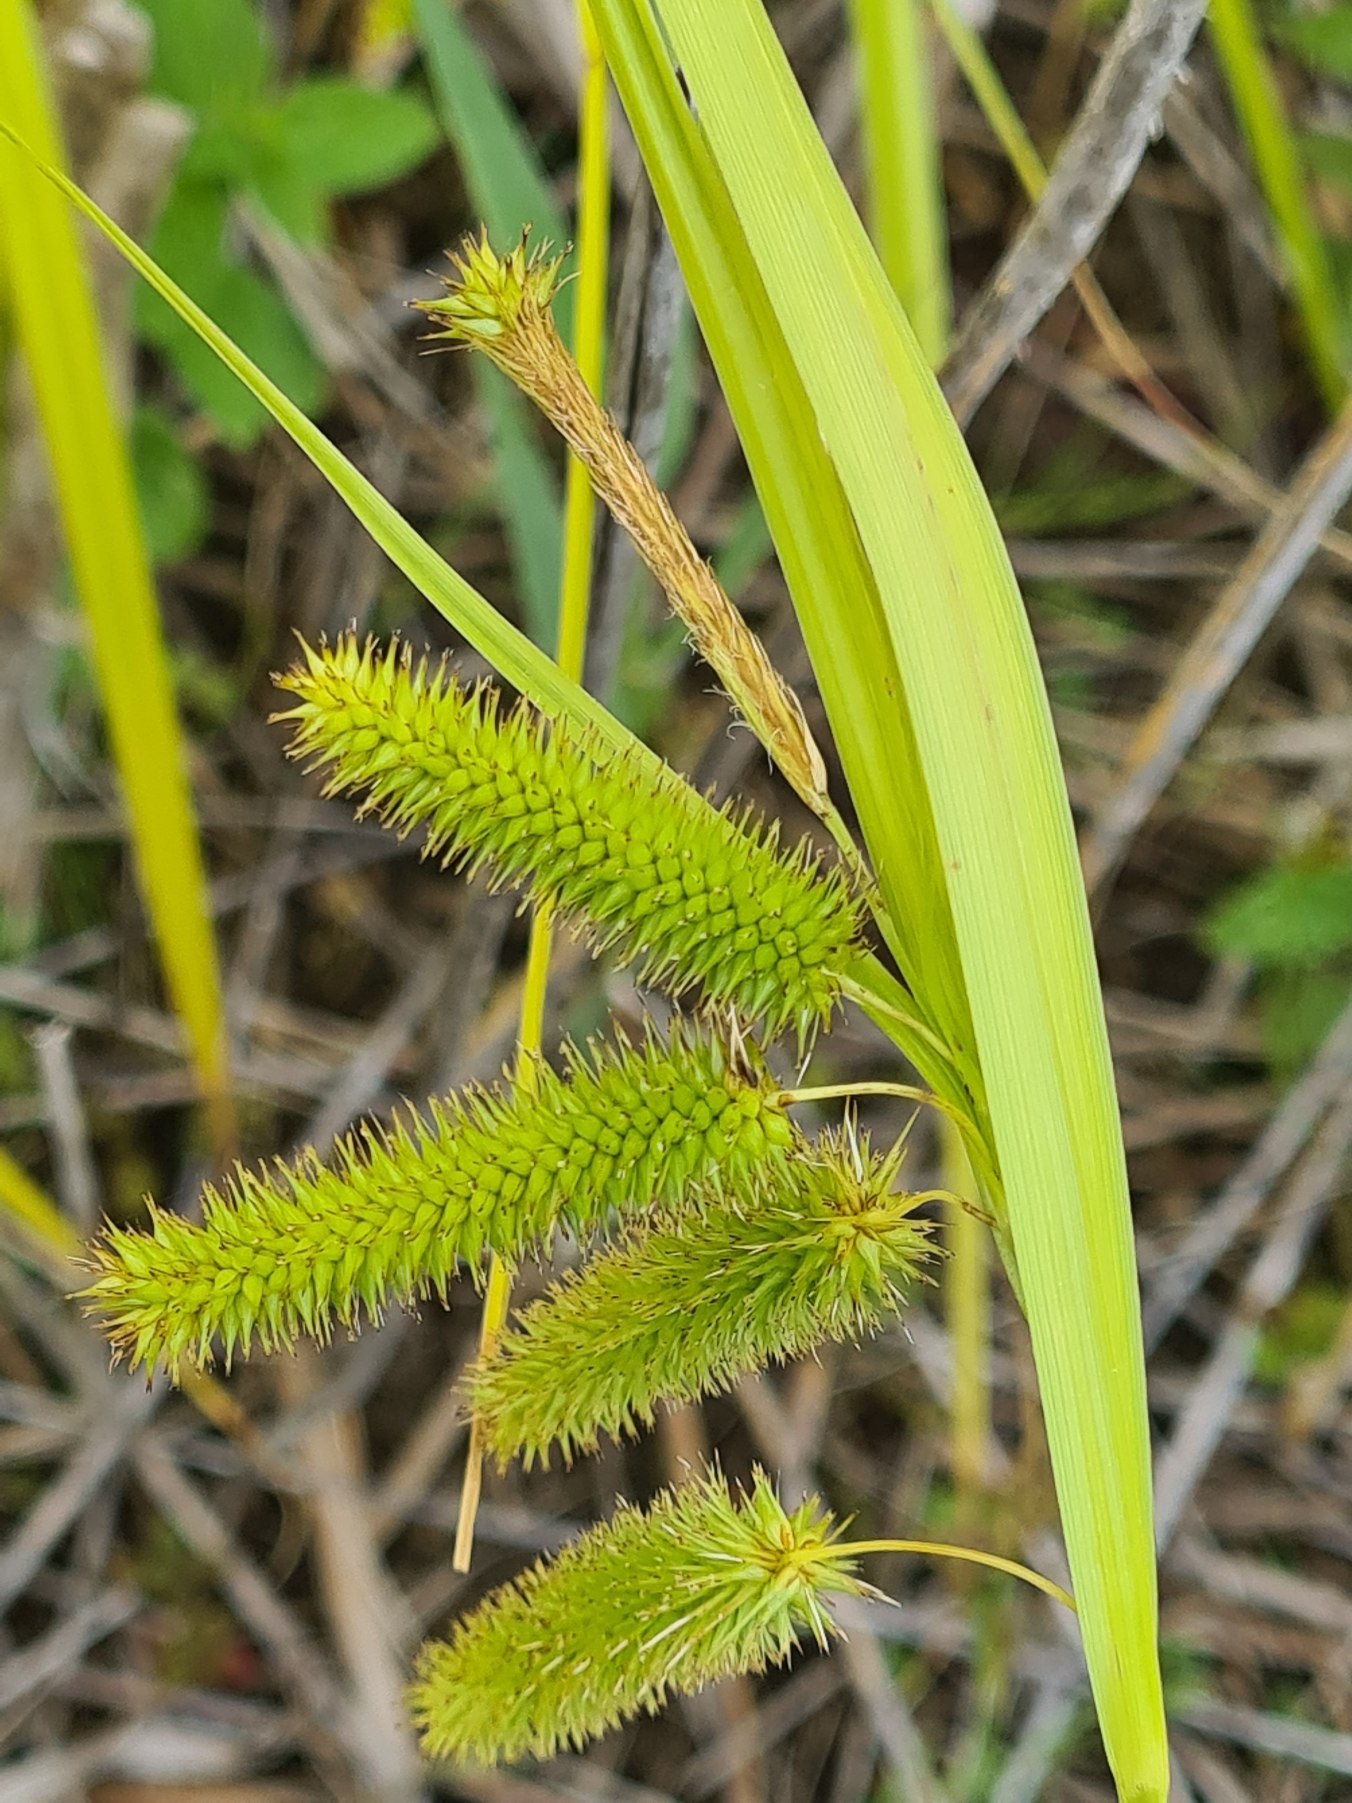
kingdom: Plantae
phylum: Tracheophyta
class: Liliopsida
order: Poales
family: Cyperaceae
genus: Carex
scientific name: Carex pseudocyperus
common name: Knippe-star
